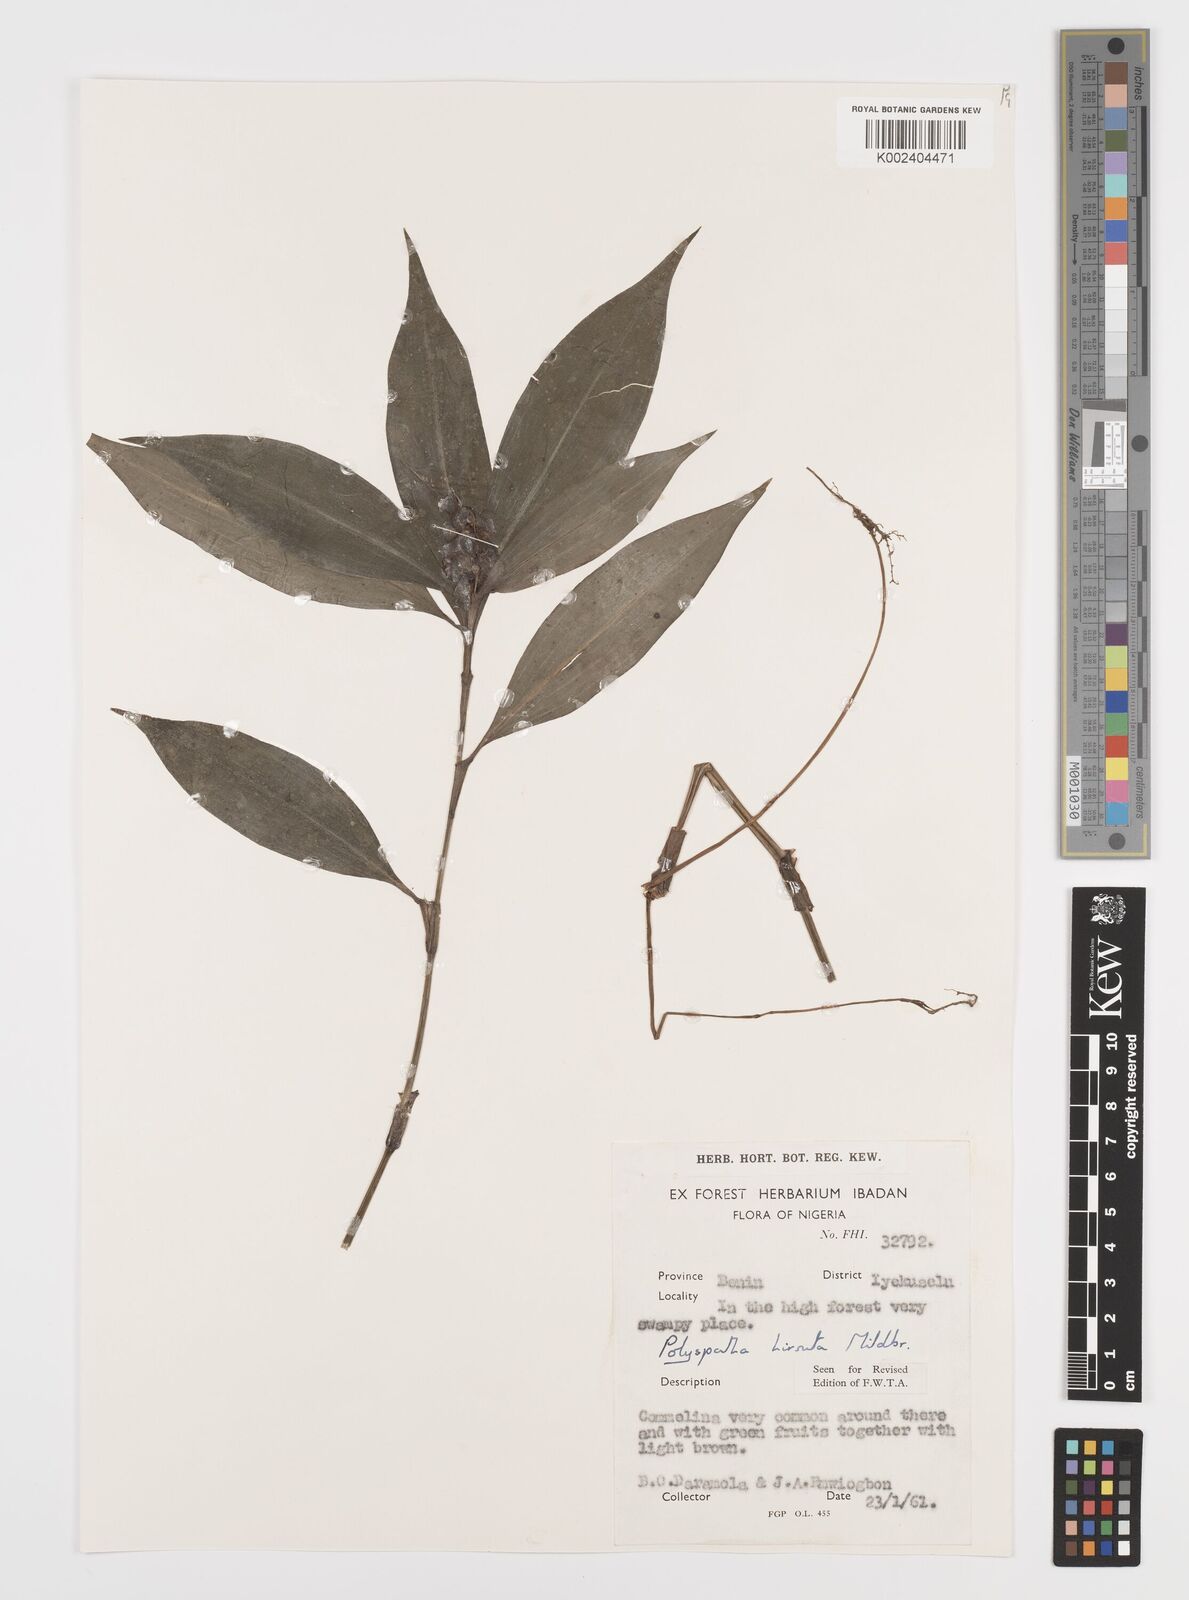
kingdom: Plantae
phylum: Tracheophyta
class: Liliopsida
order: Commelinales
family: Commelinaceae
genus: Polyspatha
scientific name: Polyspatha hirsuta
